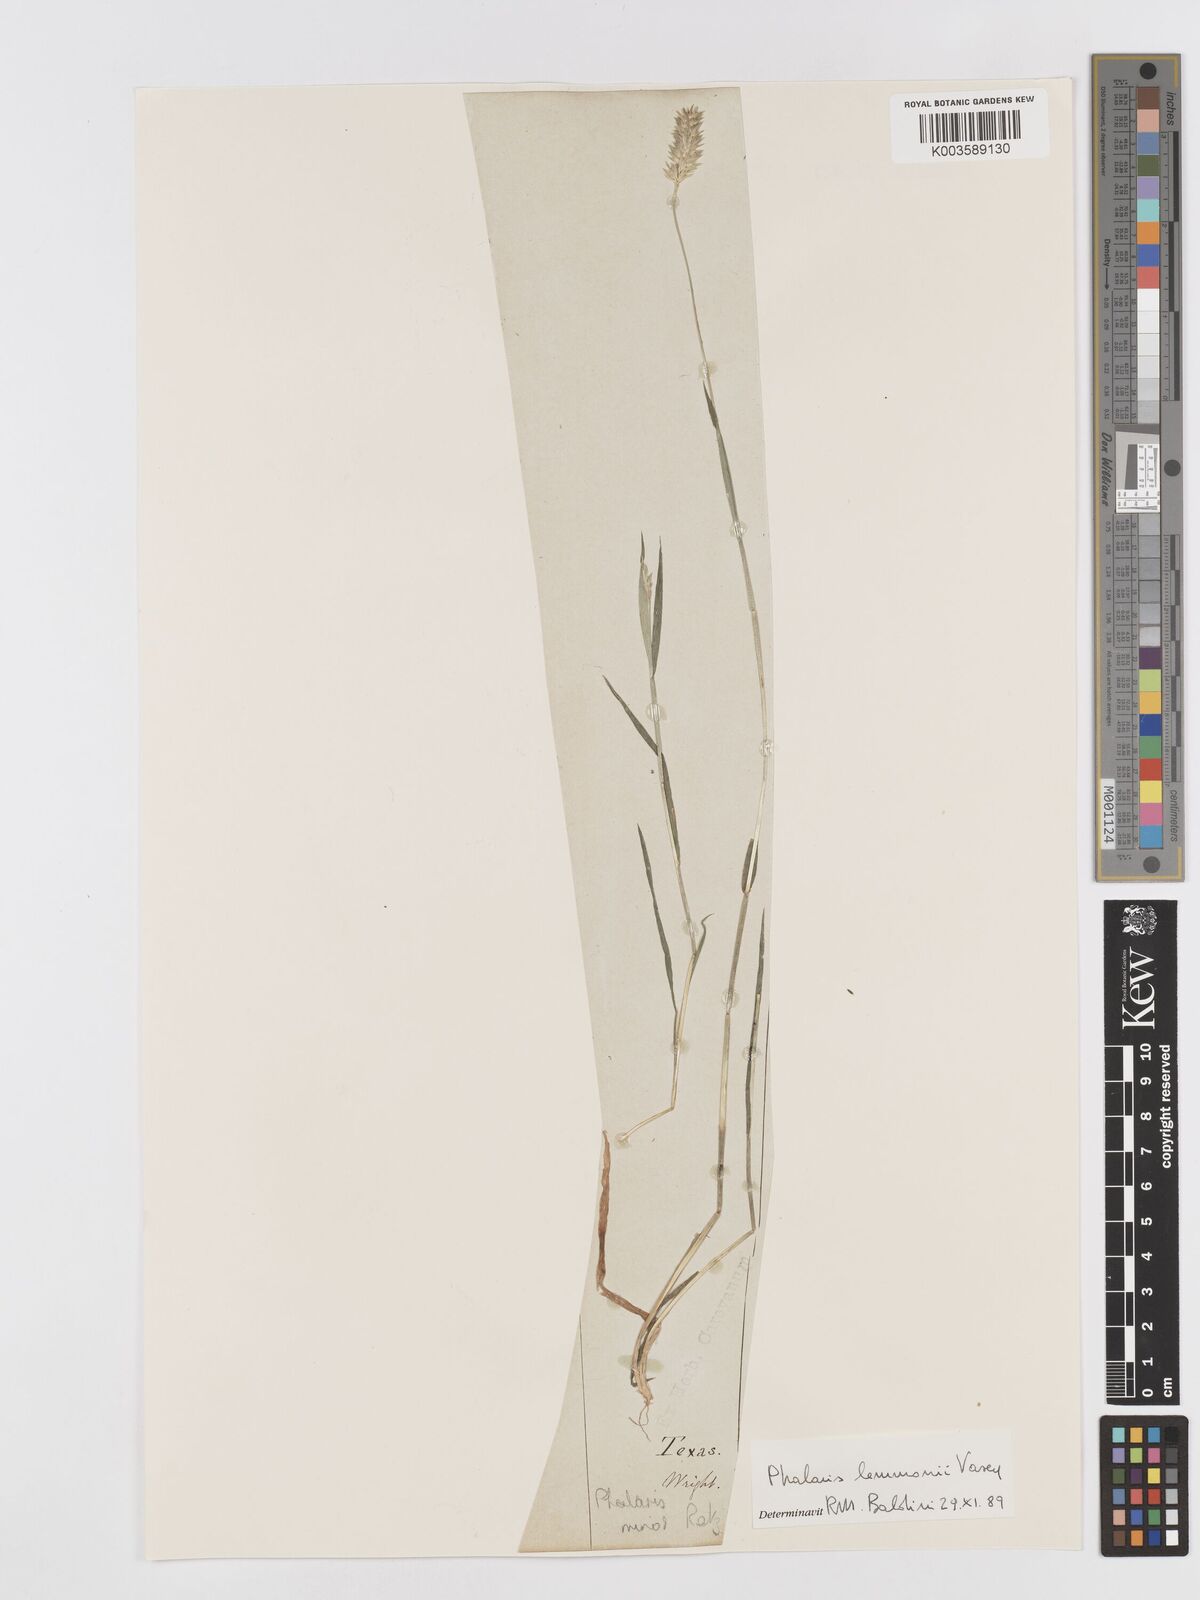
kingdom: Plantae
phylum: Tracheophyta
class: Liliopsida
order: Poales
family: Poaceae
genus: Phalaris
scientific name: Phalaris lemmonii
